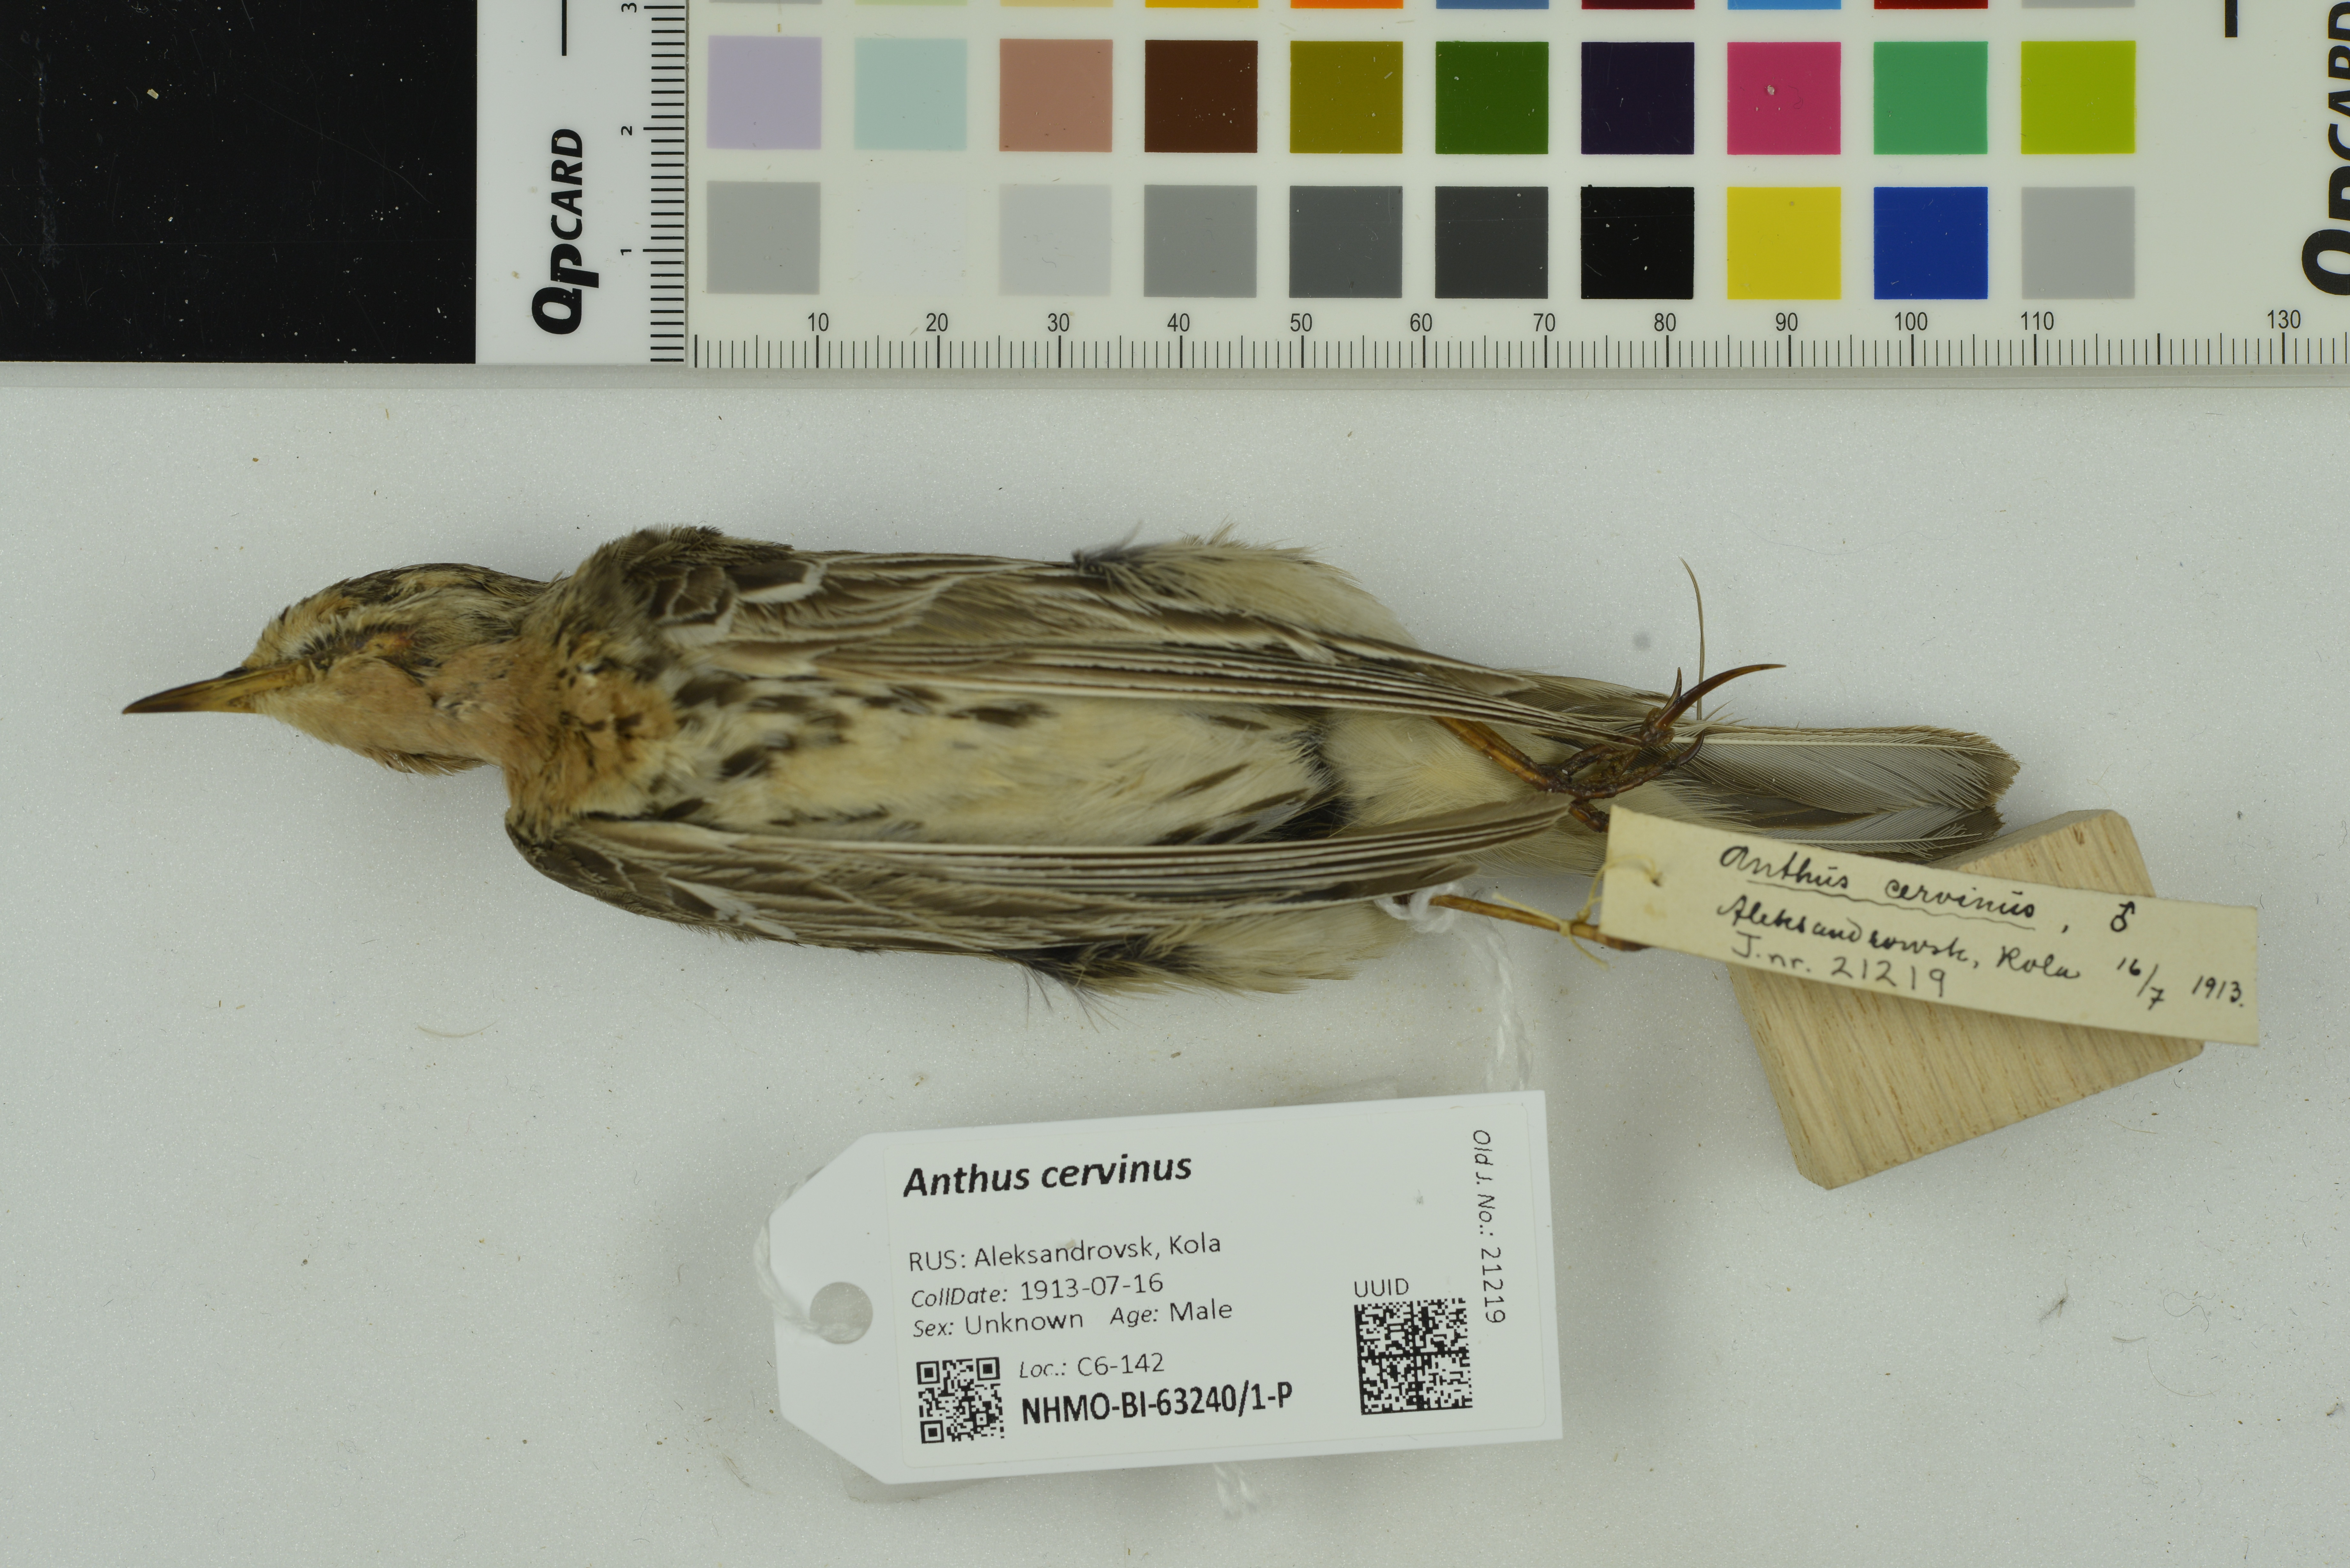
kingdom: Animalia
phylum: Chordata
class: Aves
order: Passeriformes
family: Motacillidae
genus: Anthus
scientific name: Anthus cervinus
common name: Red-throated pipit
